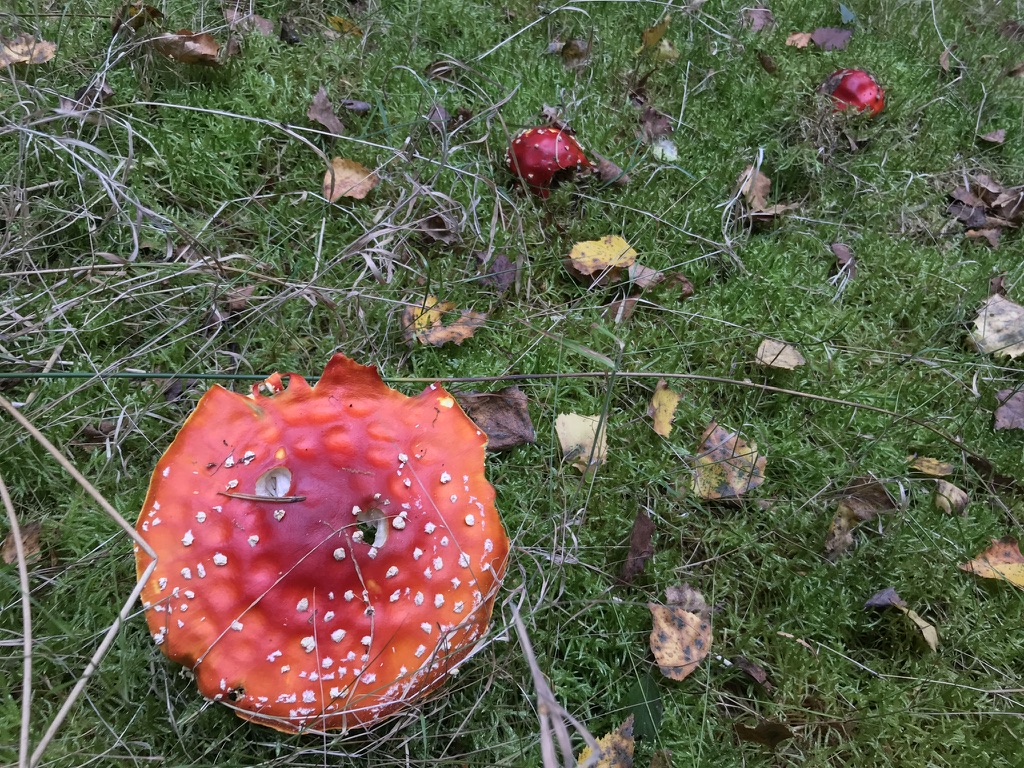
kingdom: Fungi
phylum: Basidiomycota
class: Agaricomycetes
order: Agaricales
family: Amanitaceae
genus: Amanita
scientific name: Amanita muscaria
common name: rød fluesvamp
